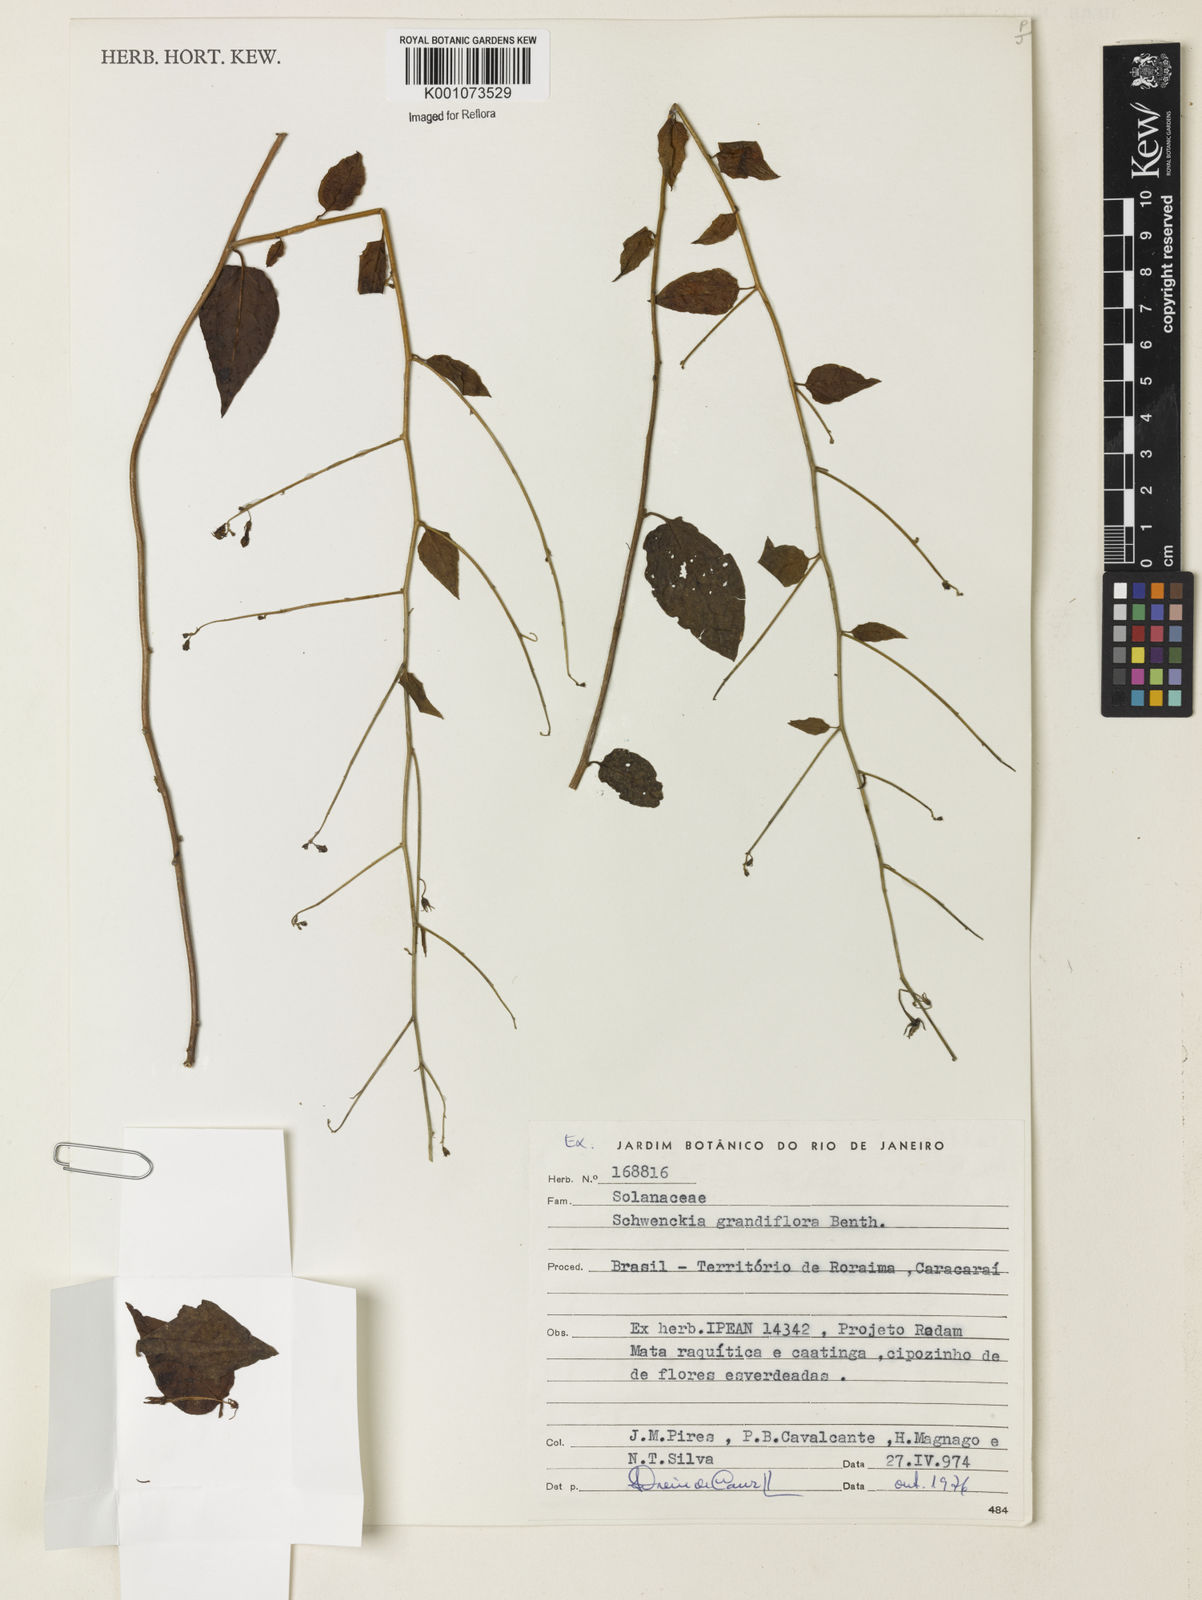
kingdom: Plantae
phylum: Tracheophyta
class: Magnoliopsida
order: Solanales
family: Solanaceae
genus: Schwenckia
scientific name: Schwenckia grandiflora
